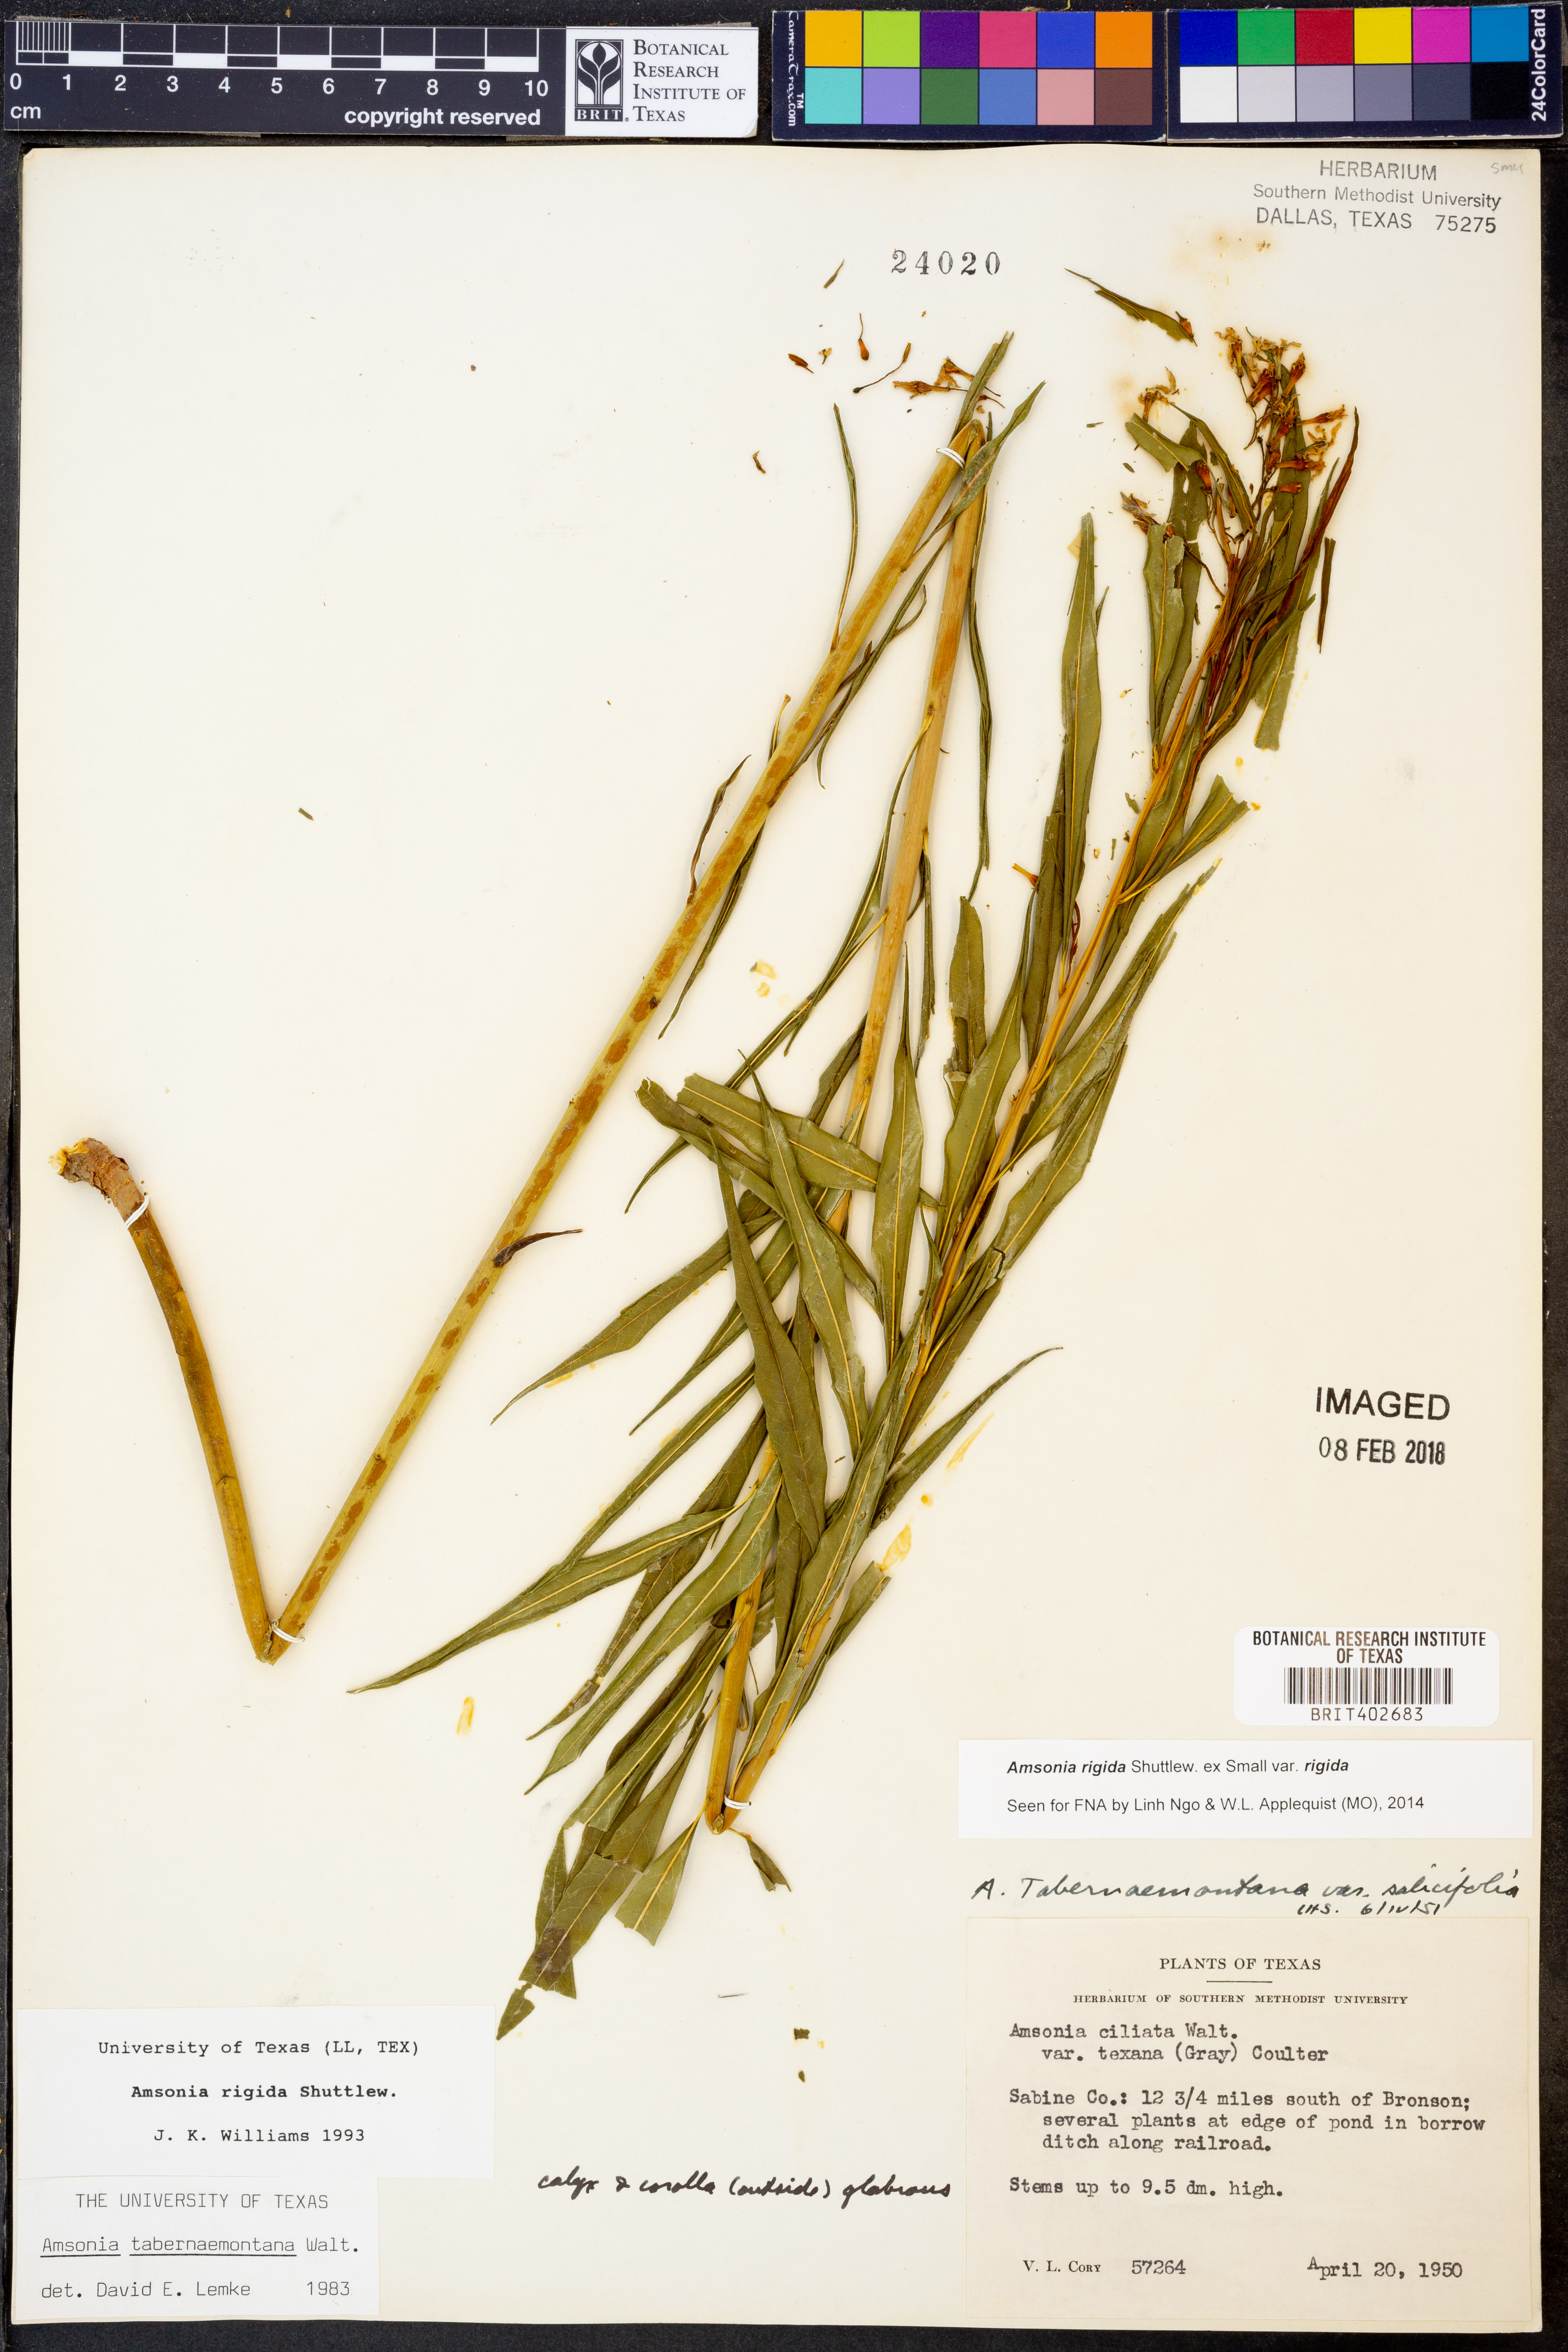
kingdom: Plantae
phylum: Tracheophyta
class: Magnoliopsida
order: Gentianales
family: Apocynaceae
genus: Amsonia
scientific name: Amsonia rigida
